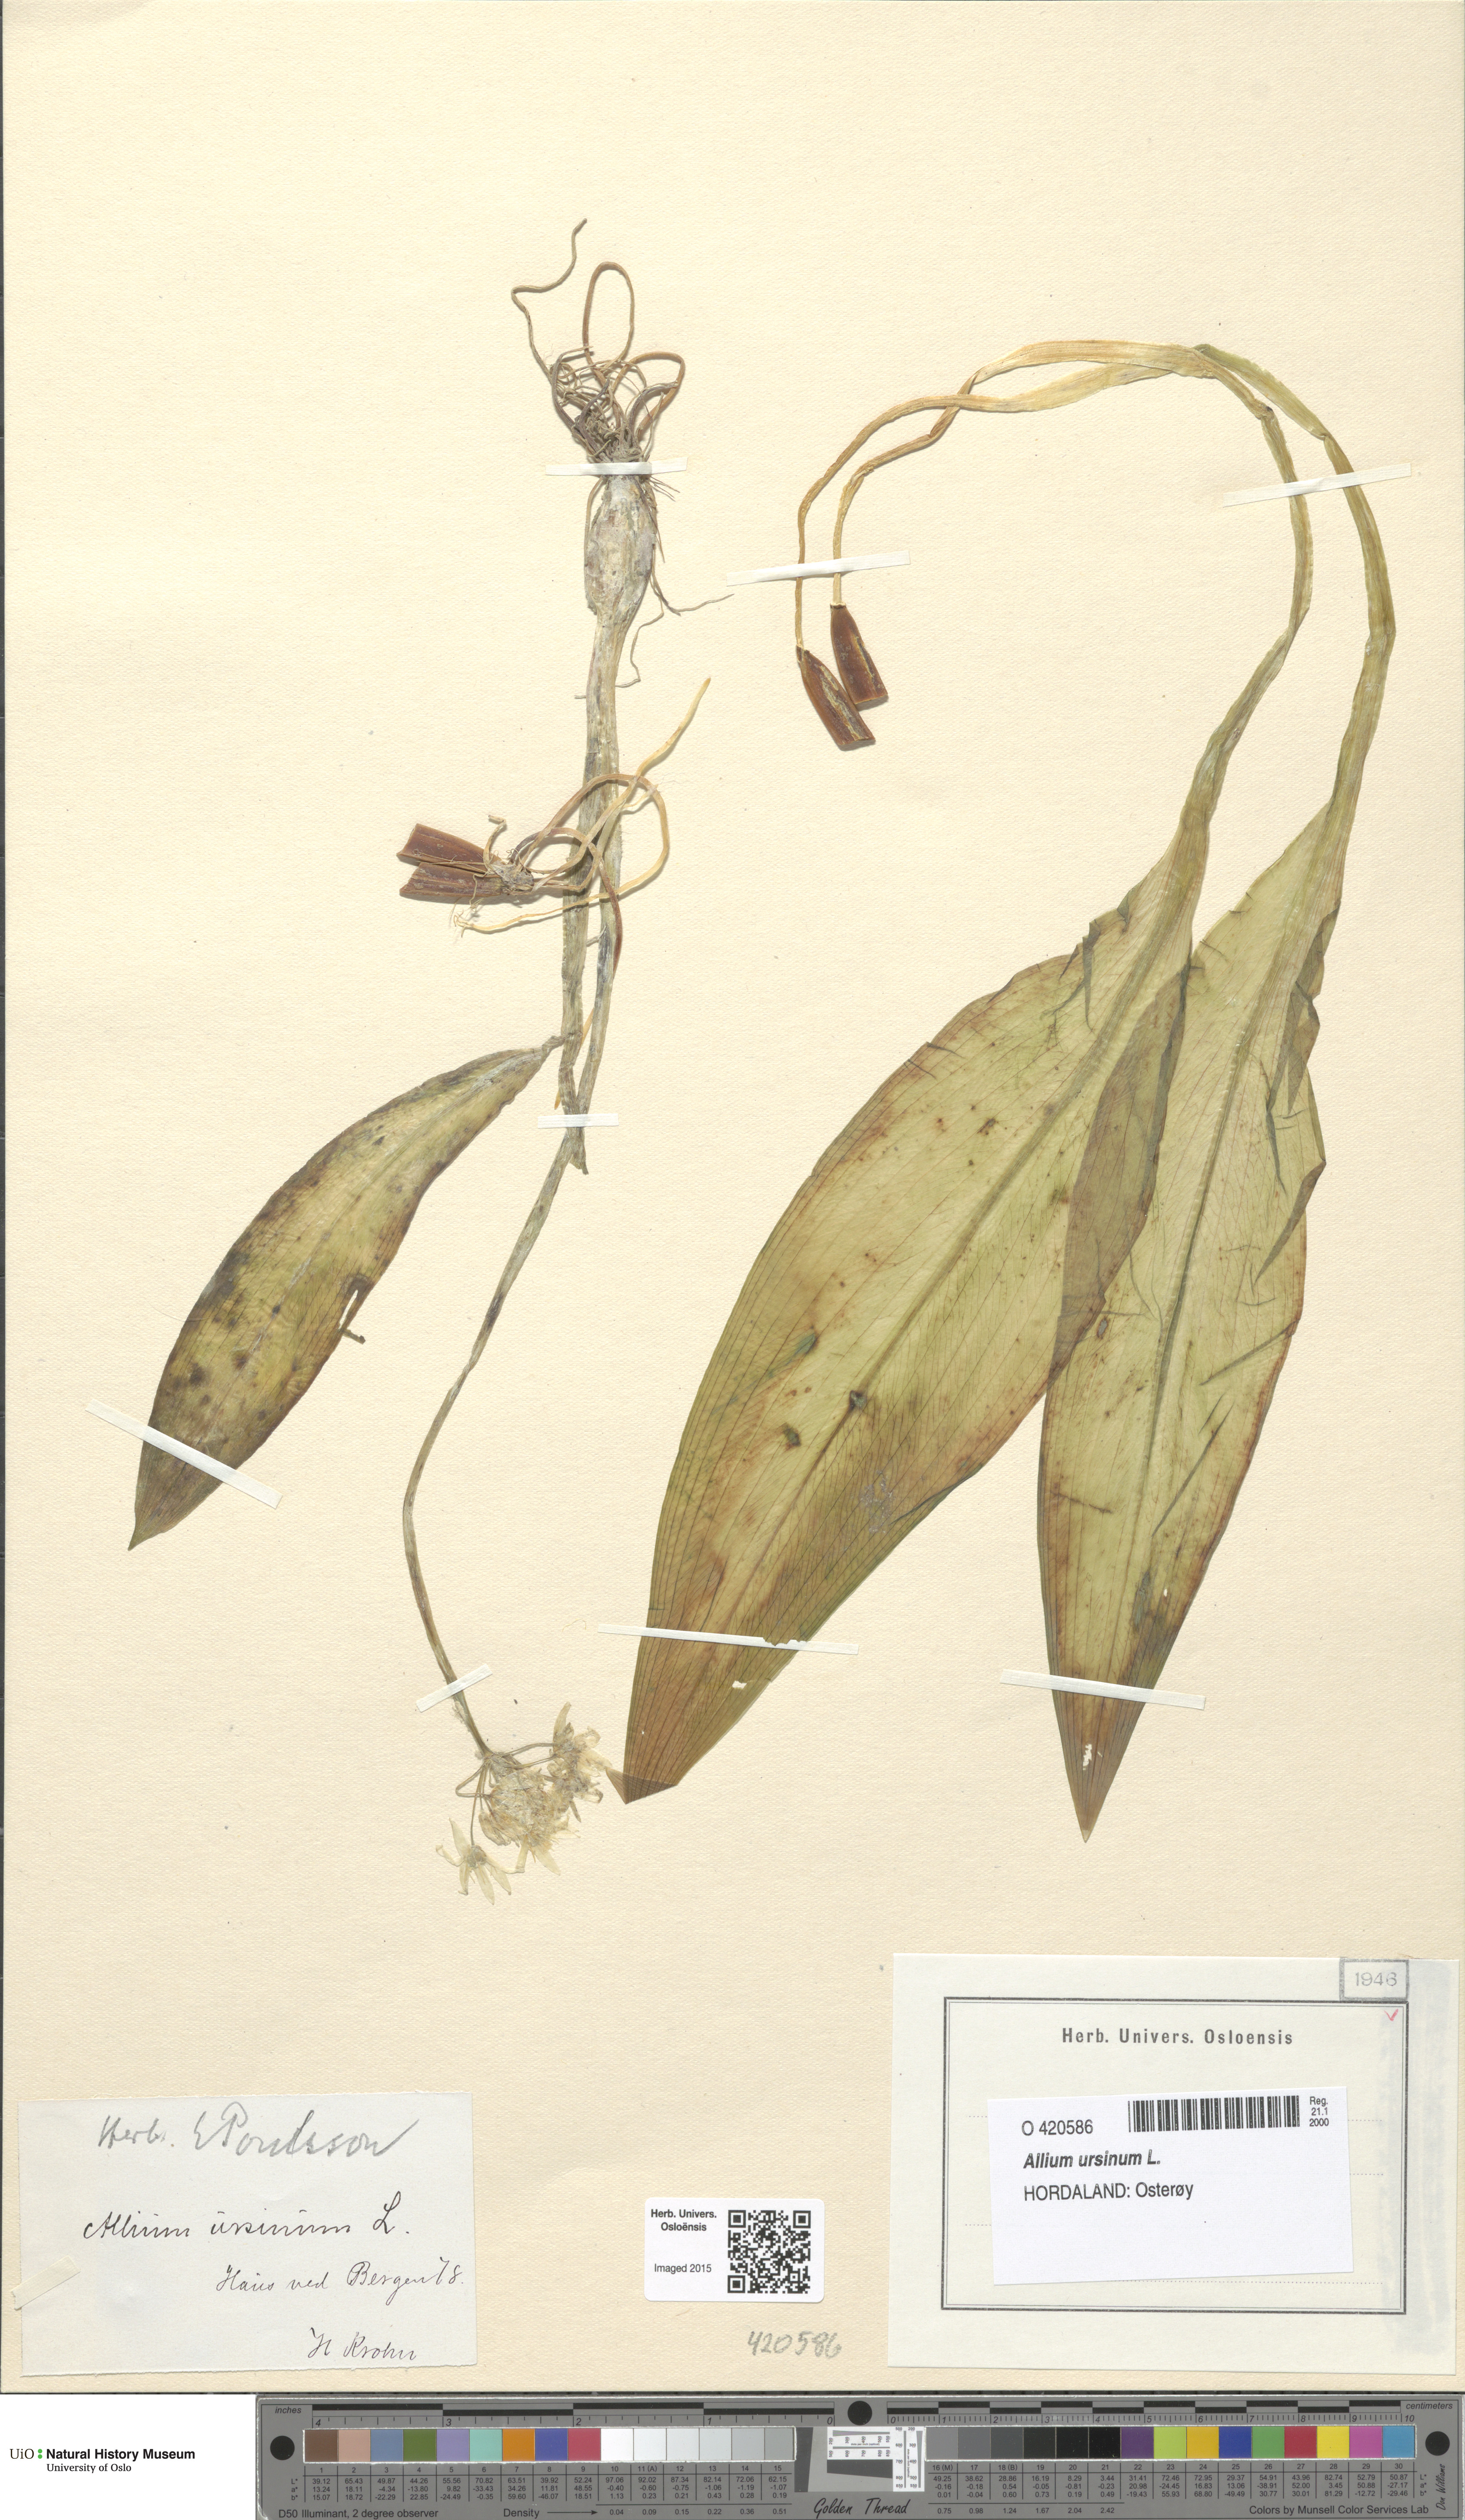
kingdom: Plantae
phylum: Tracheophyta
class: Liliopsida
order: Asparagales
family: Amaryllidaceae
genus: Allium
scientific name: Allium ursinum
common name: Ramsons
